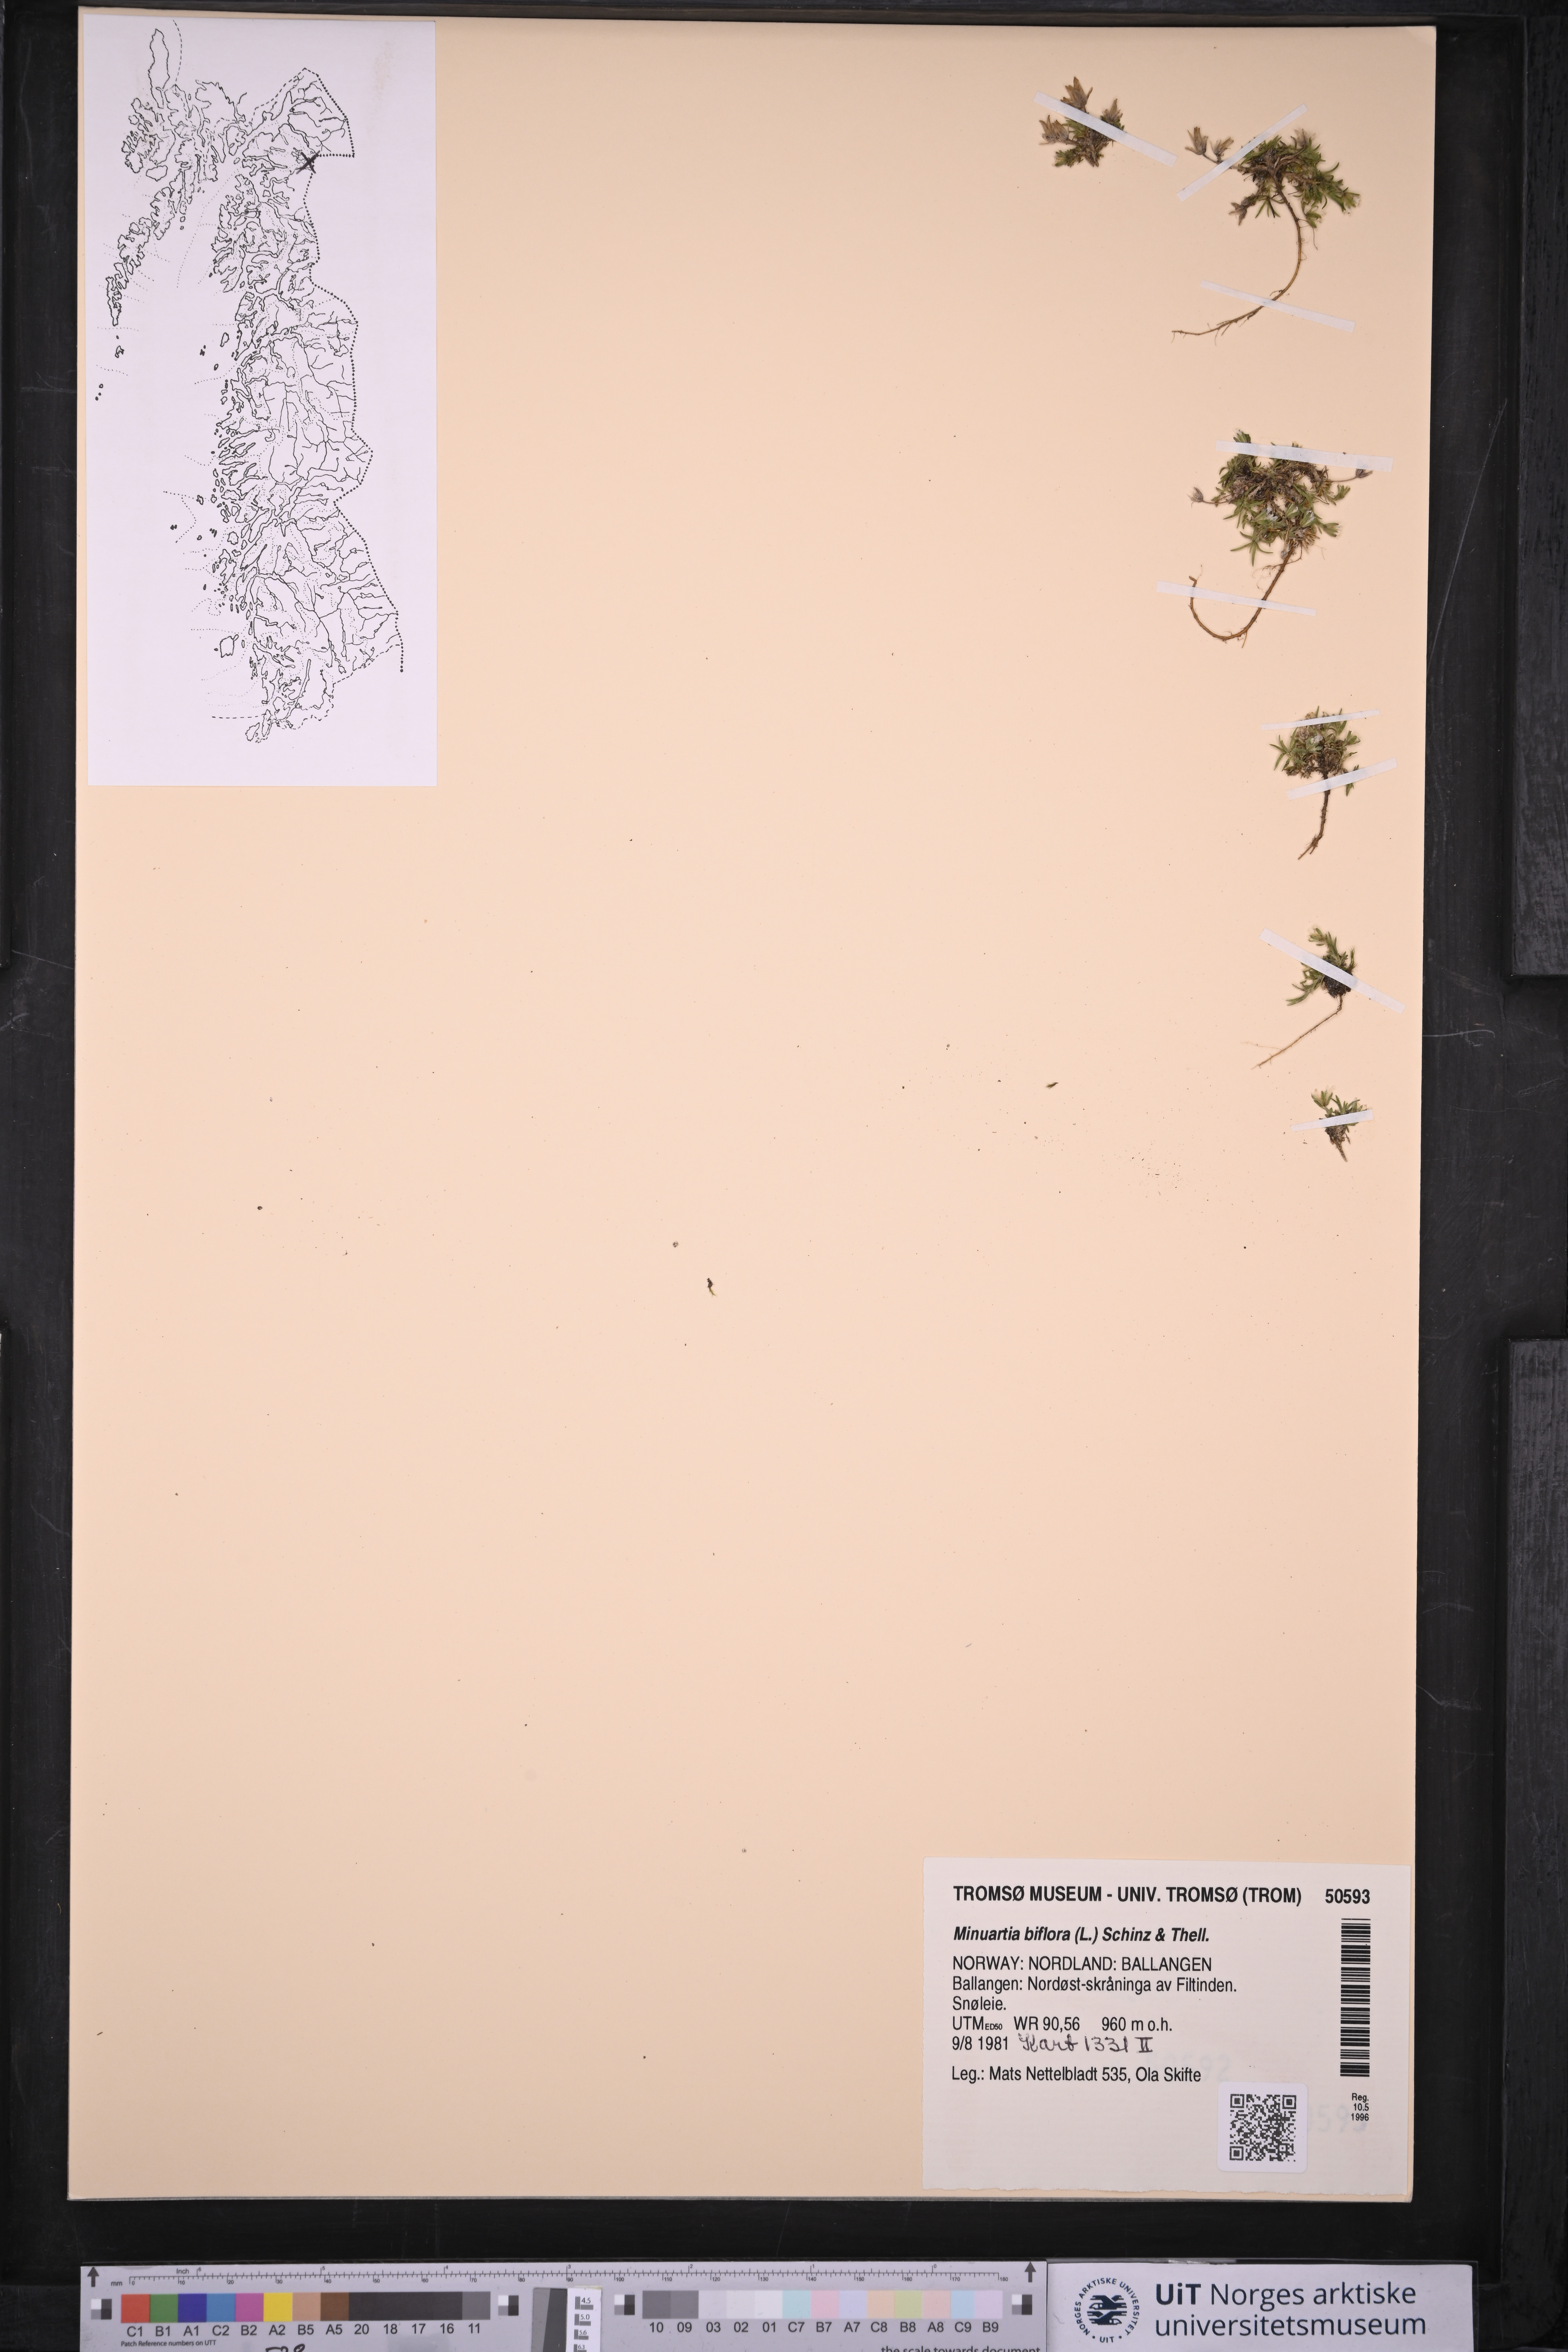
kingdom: Plantae
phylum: Tracheophyta
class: Magnoliopsida
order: Caryophyllales
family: Caryophyllaceae
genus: Cherleria
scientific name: Cherleria biflora
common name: Mountain sandwort
